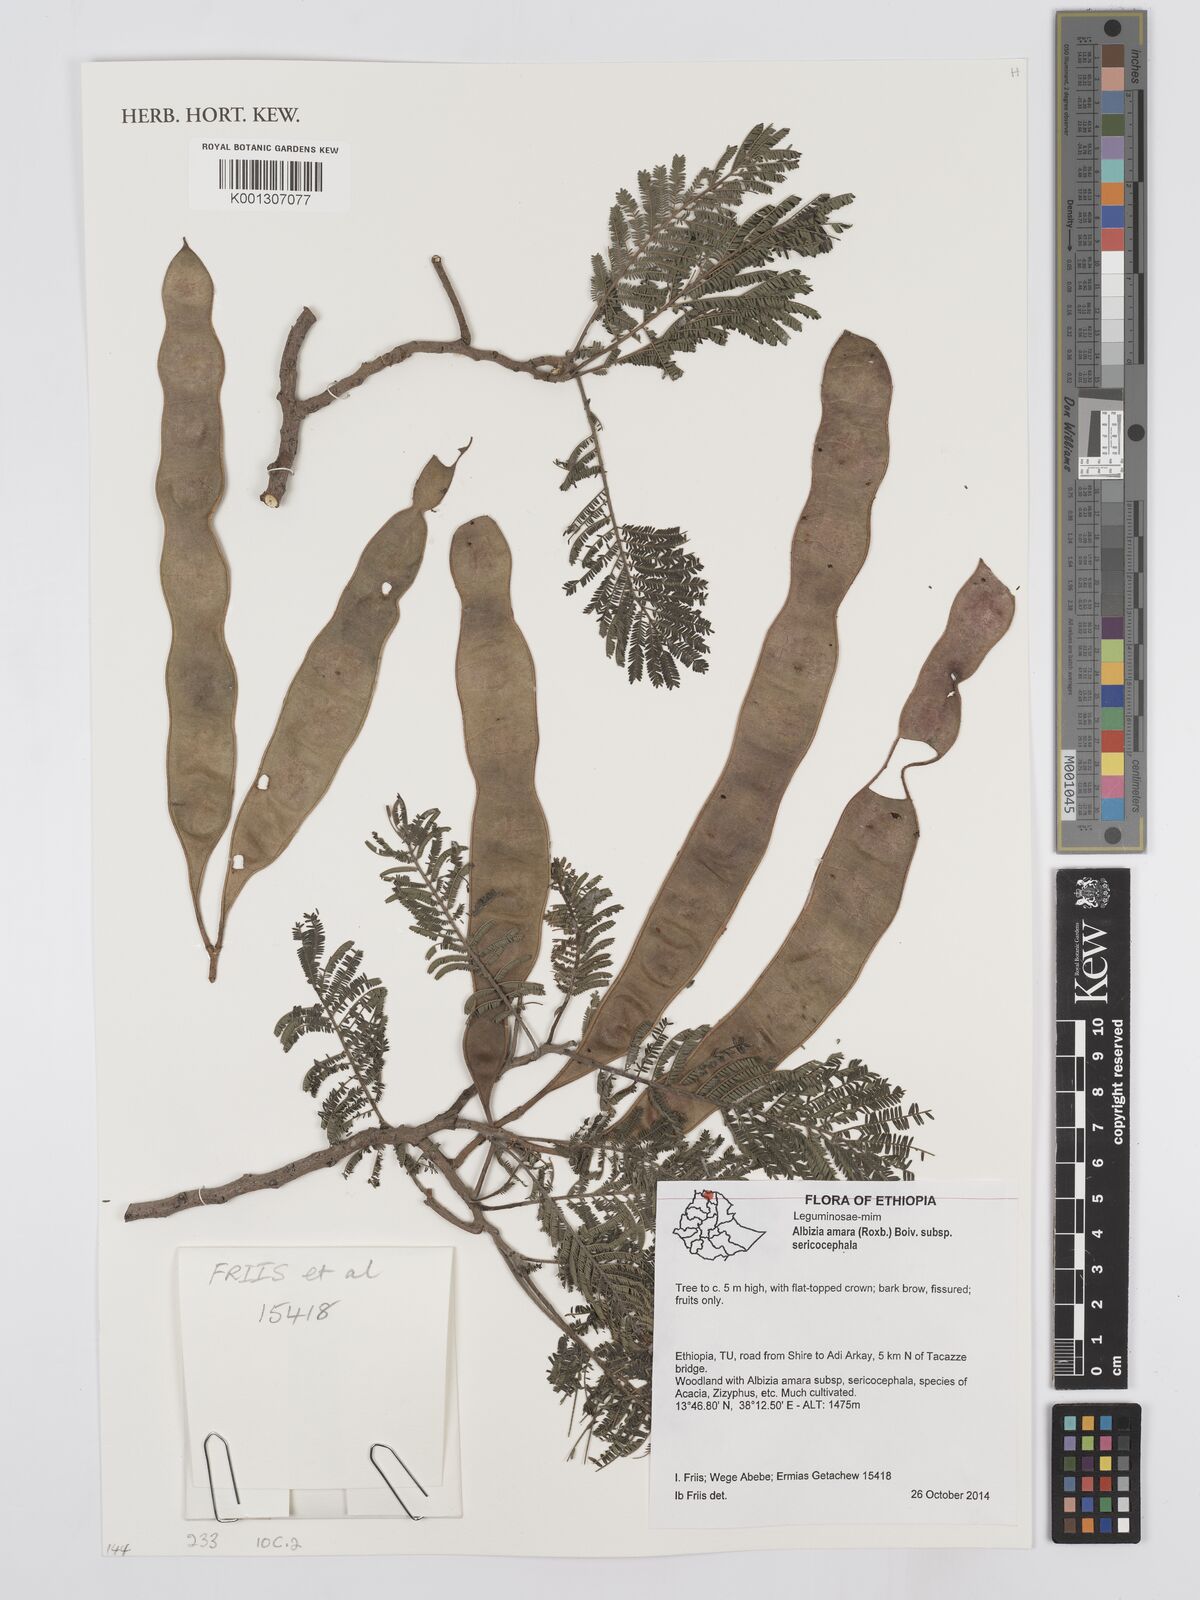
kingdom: Plantae
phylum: Tracheophyta
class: Magnoliopsida
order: Fabales
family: Fabaceae
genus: Albizia
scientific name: Albizia amara
